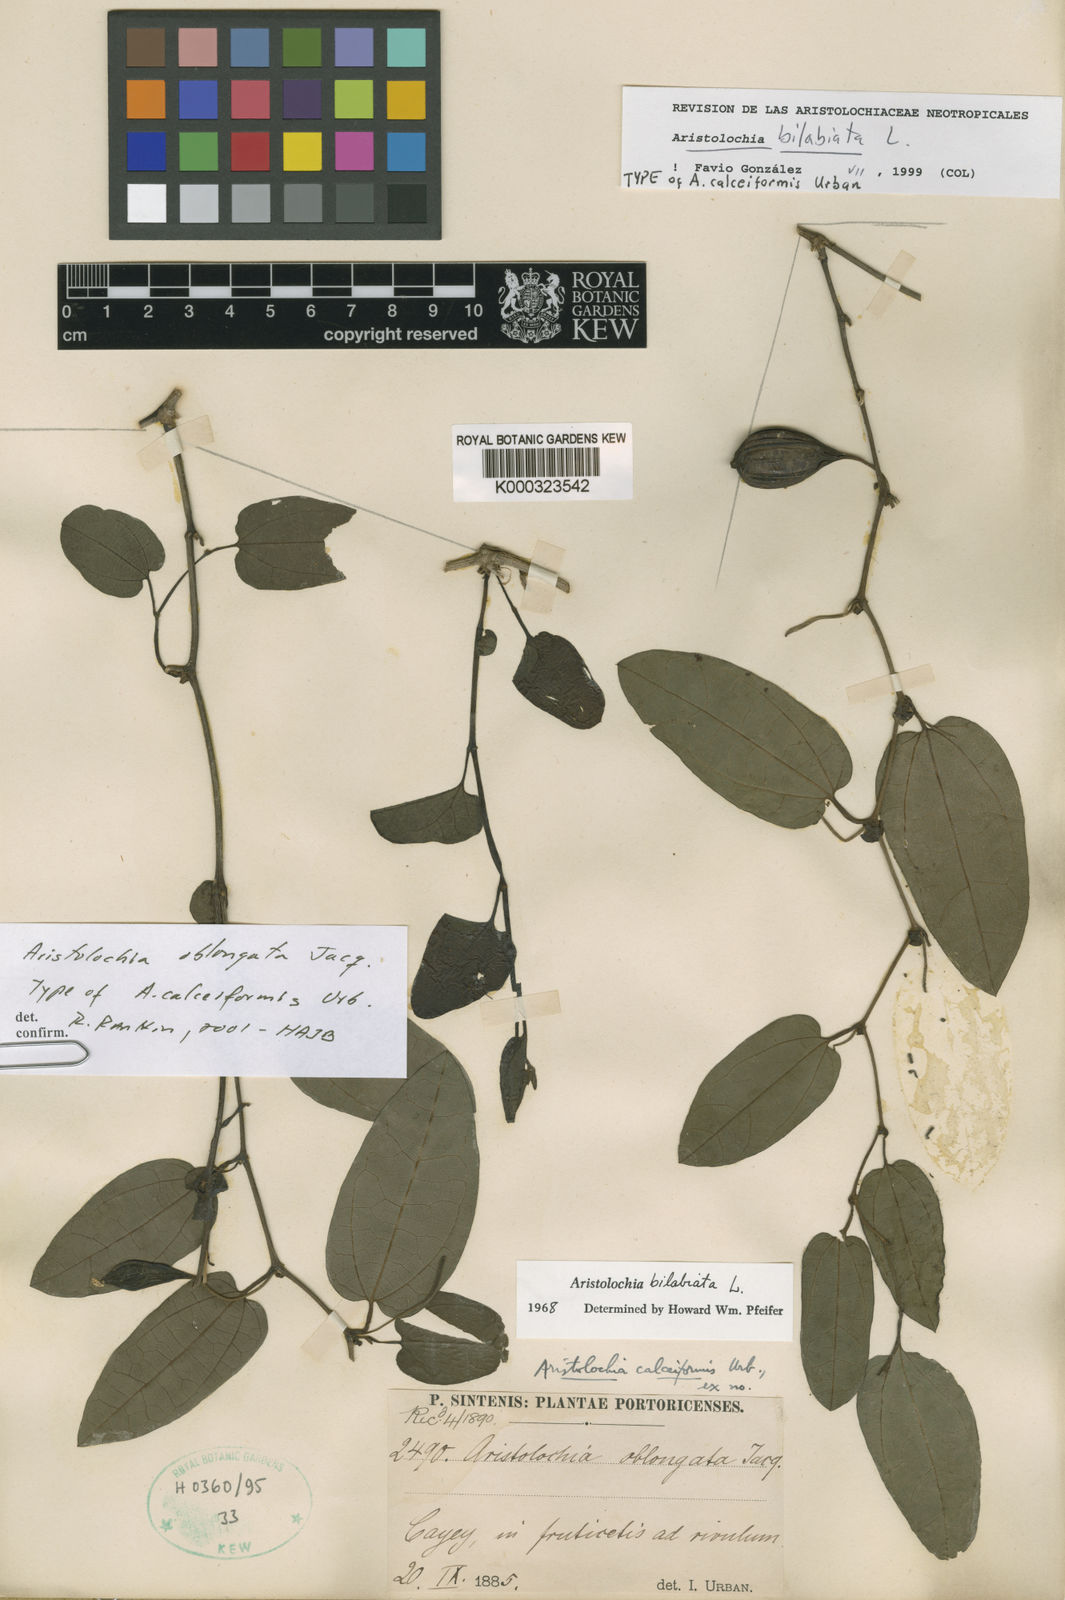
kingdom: Plantae
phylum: Tracheophyta
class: Magnoliopsida
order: Piperales
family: Aristolochiaceae
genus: Aristolochia
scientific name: Aristolochia bilabiata
